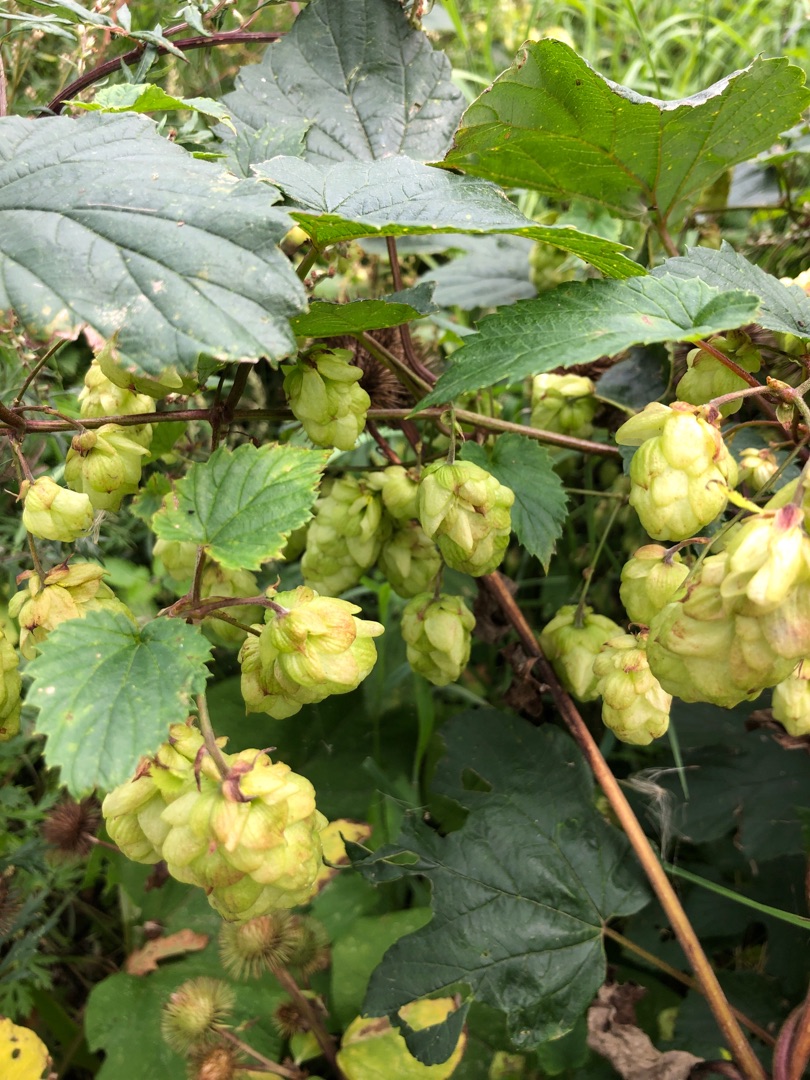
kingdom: Plantae
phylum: Tracheophyta
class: Magnoliopsida
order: Rosales
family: Cannabaceae
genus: Humulus
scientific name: Humulus lupulus
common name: Humle
